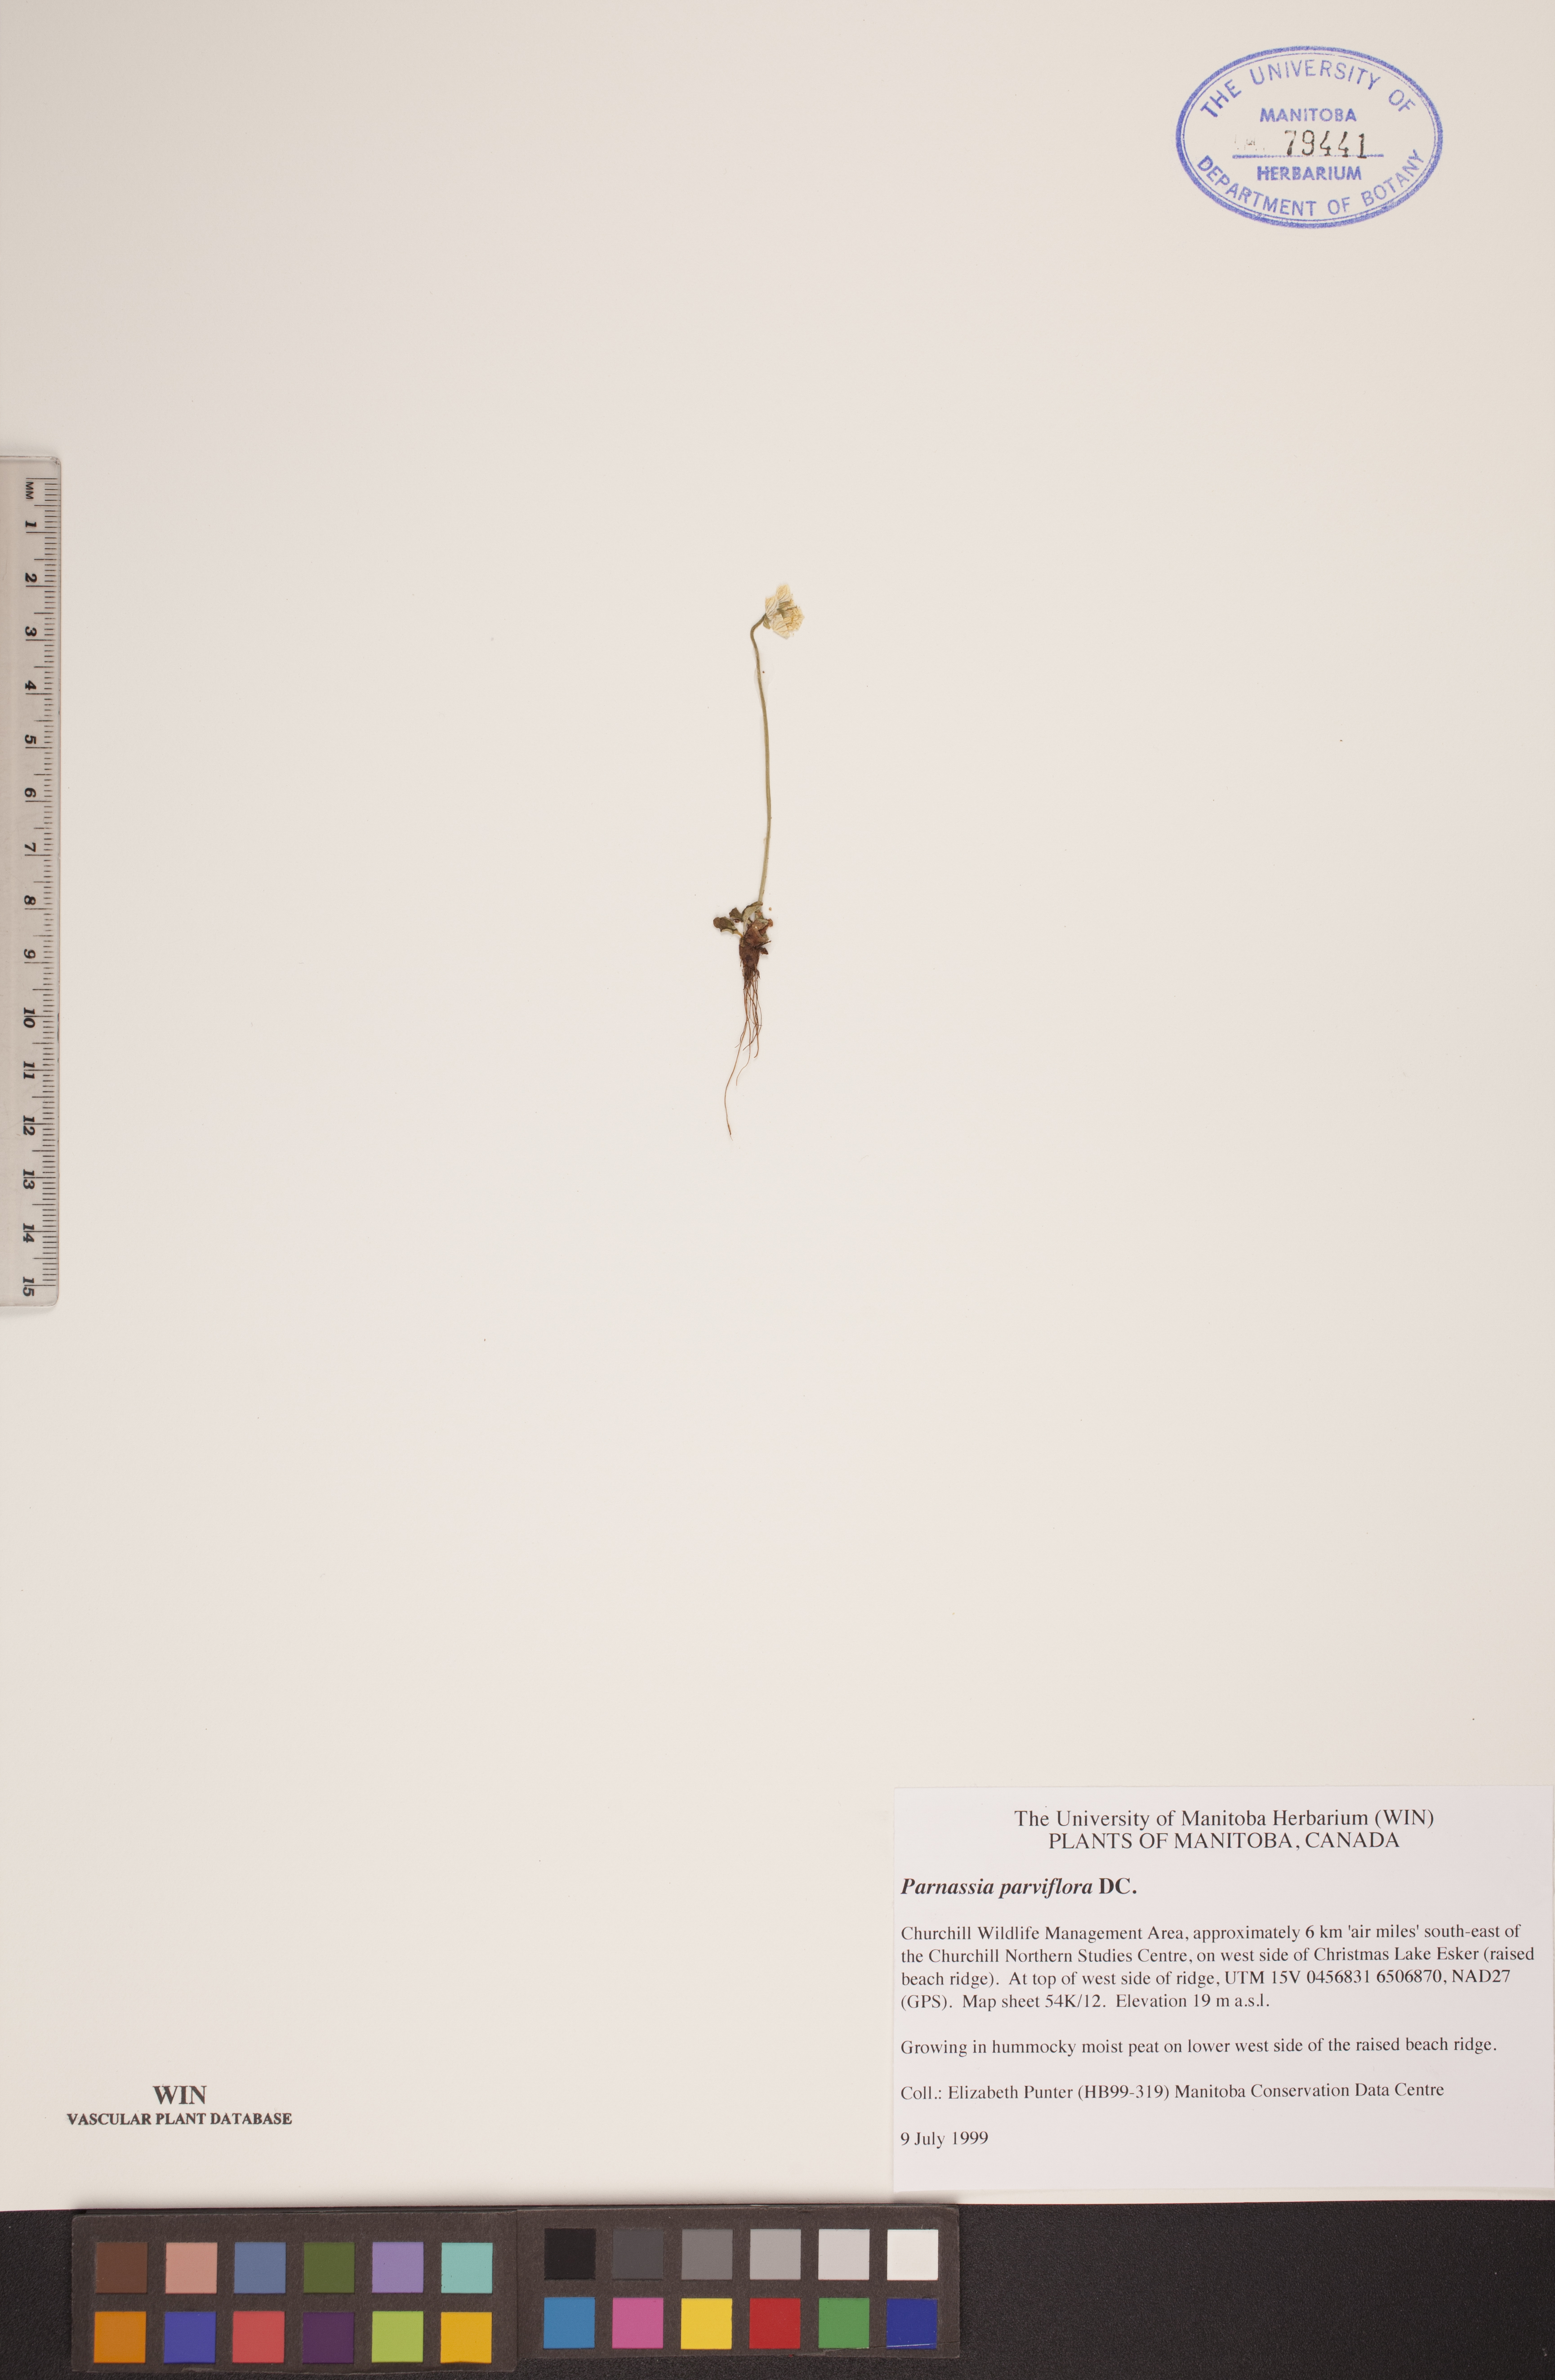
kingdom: Plantae
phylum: Tracheophyta
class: Magnoliopsida
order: Celastrales
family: Parnassiaceae
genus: Parnassia
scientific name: Parnassia parviflora
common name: Small-flowered grass-of-parnassus
